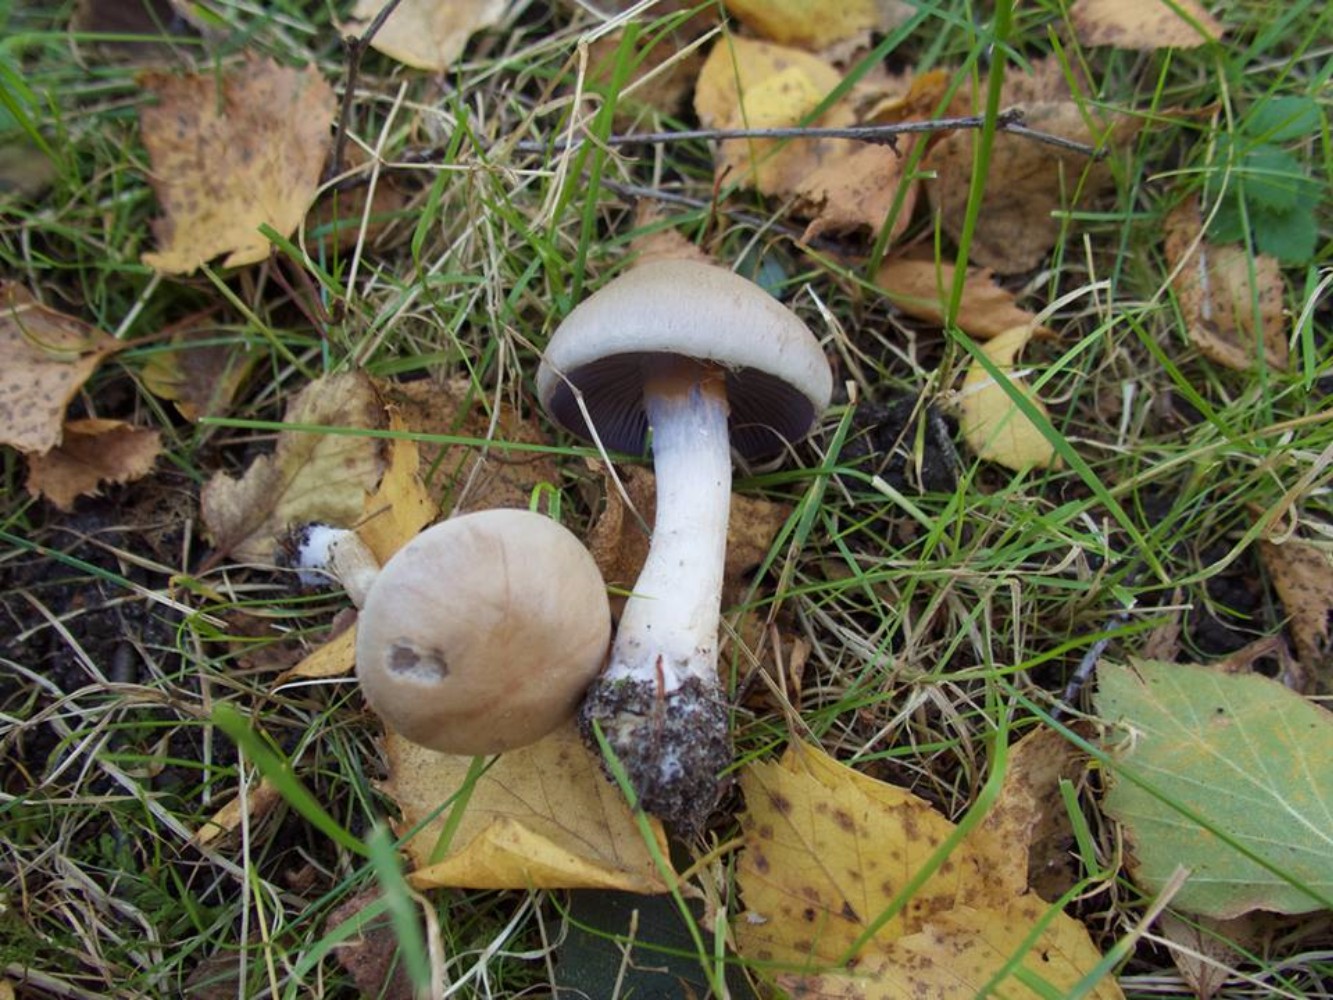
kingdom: Fungi
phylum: Basidiomycota
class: Agaricomycetes
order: Agaricales
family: Cortinariaceae
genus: Cortinarius
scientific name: Cortinarius anomalus
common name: Variable webcap
